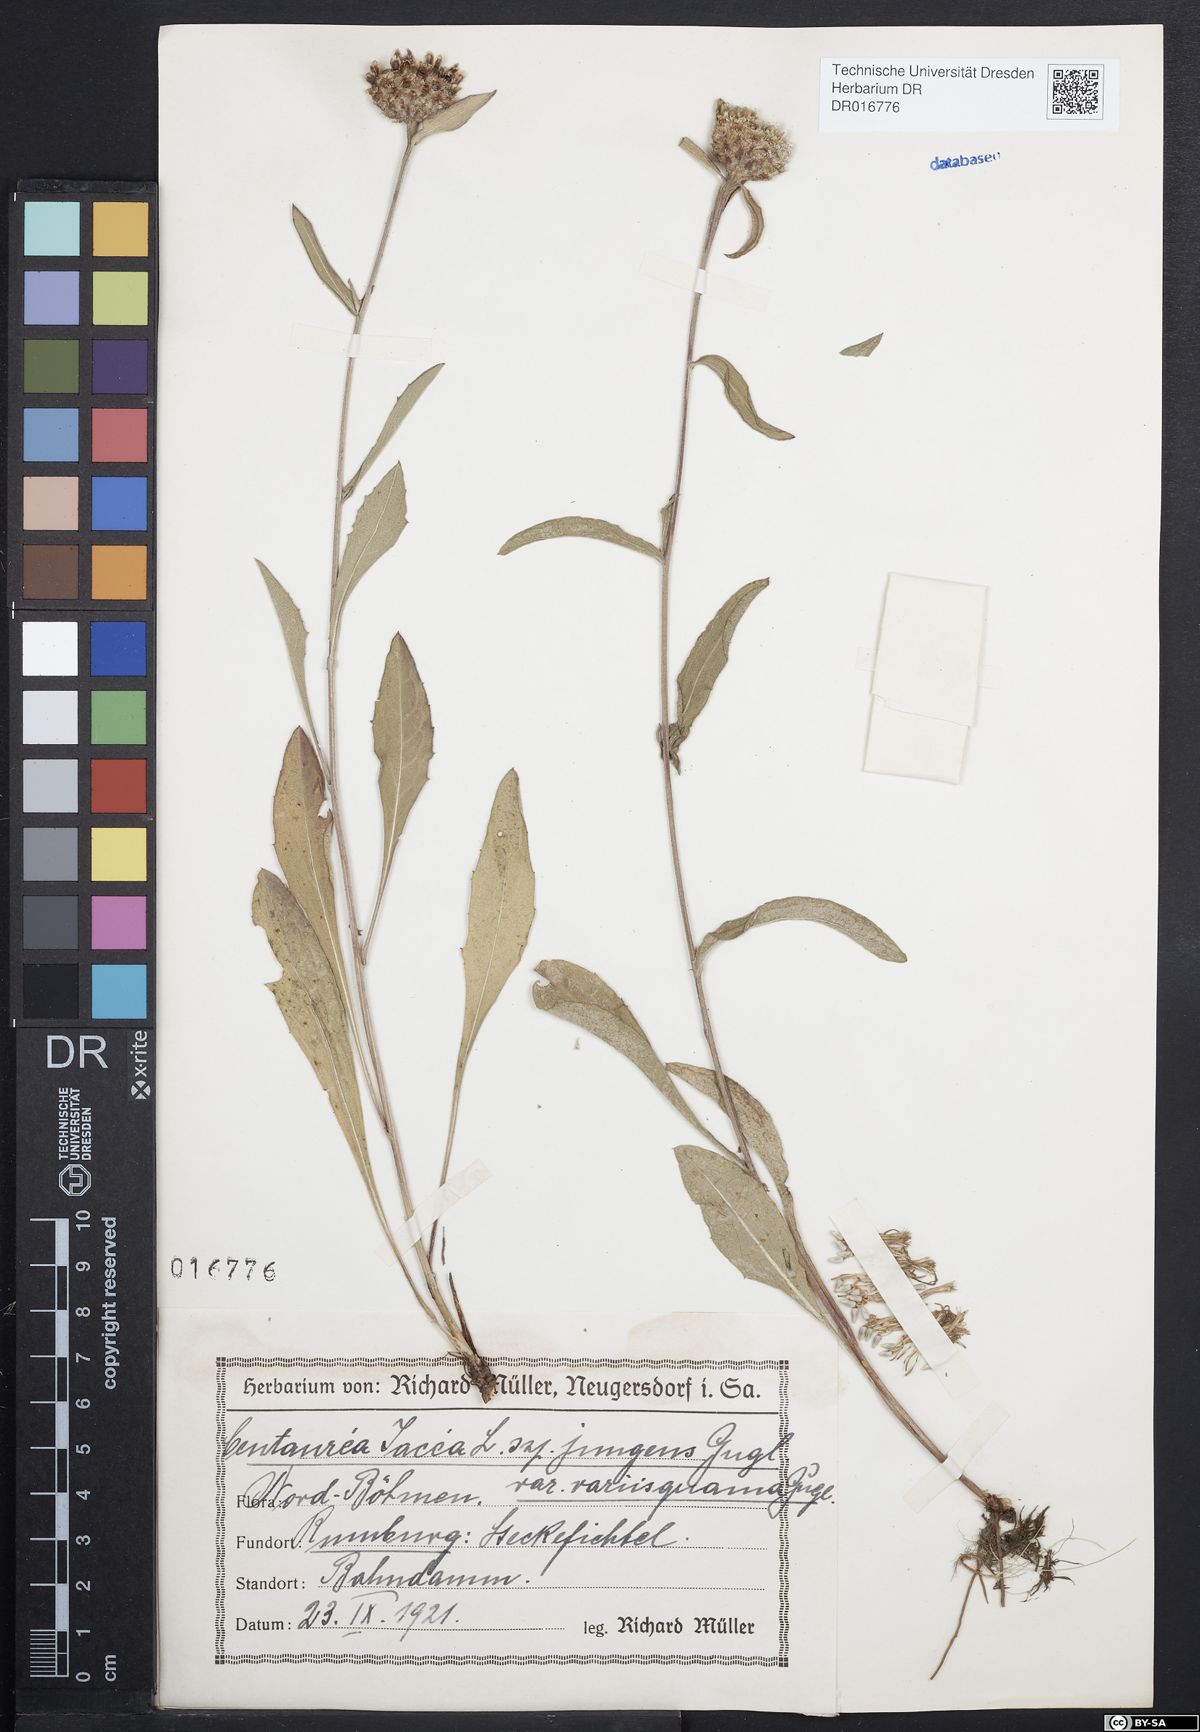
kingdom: Plantae
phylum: Tracheophyta
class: Magnoliopsida
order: Asterales
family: Asteraceae
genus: Centaurea
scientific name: Centaurea jacea
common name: Brown knapweed
